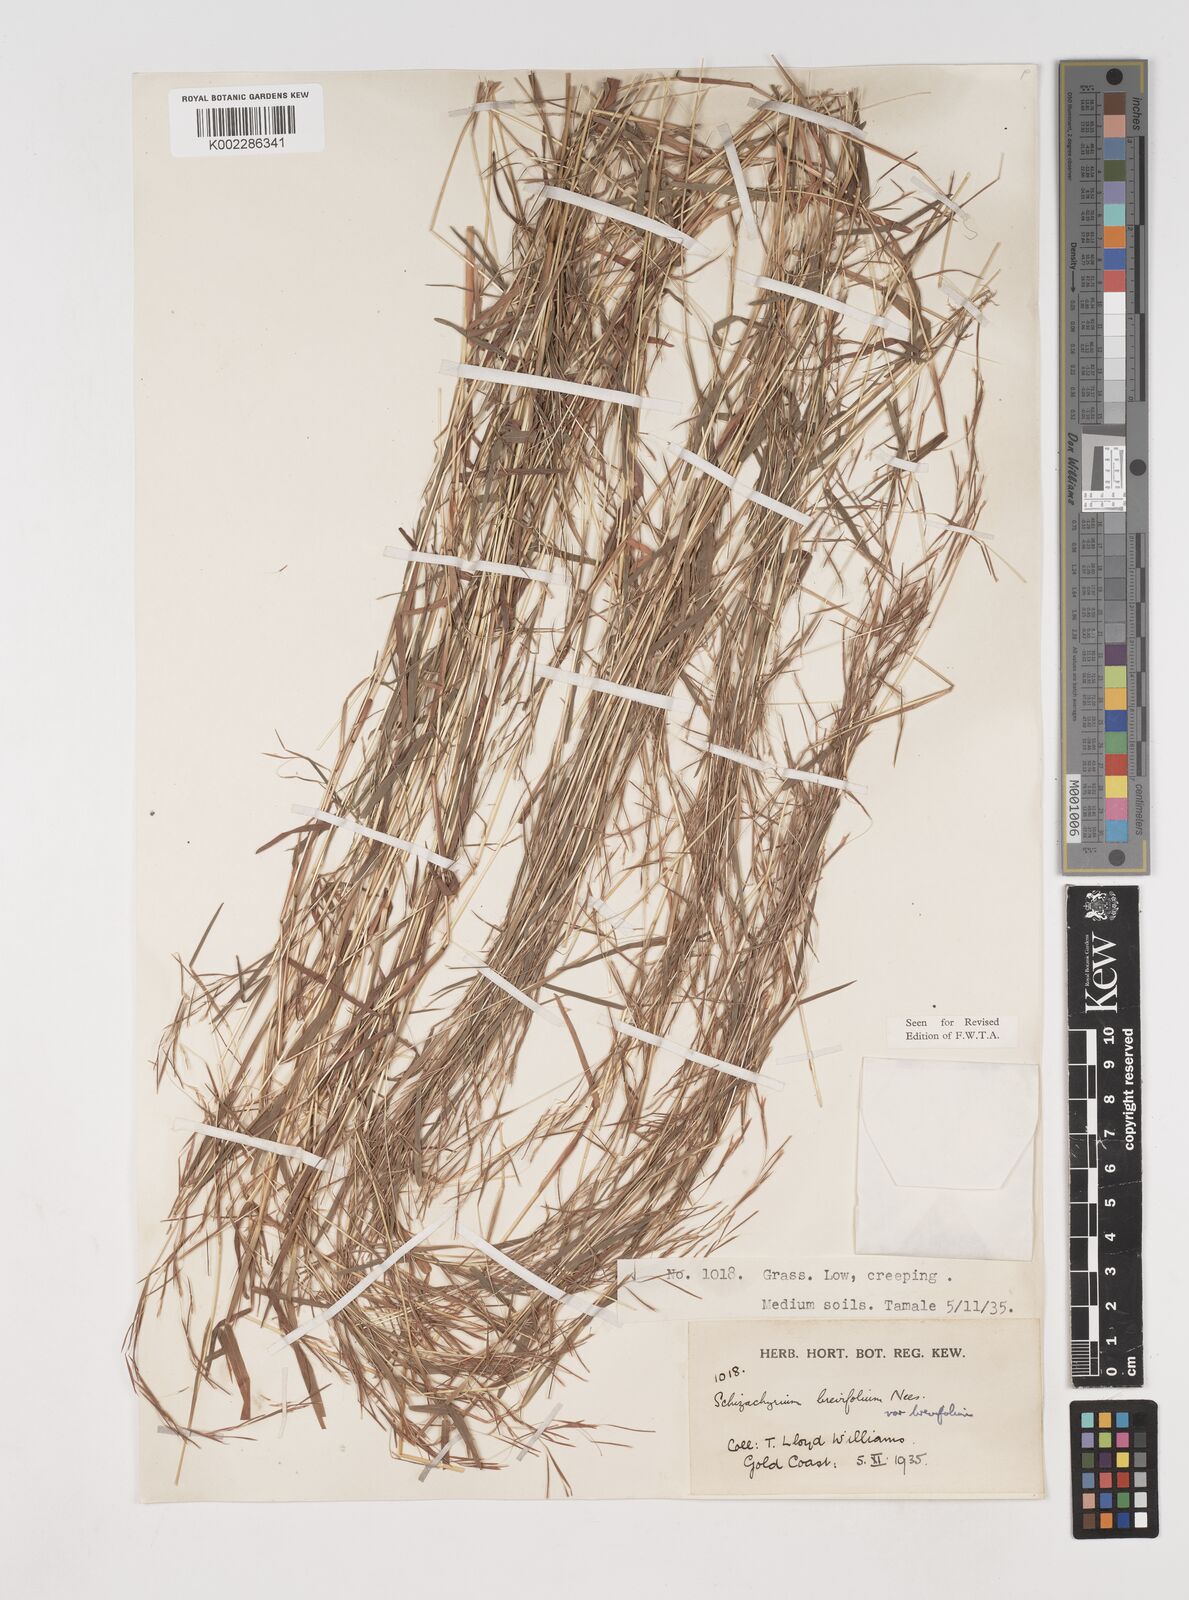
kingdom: Plantae
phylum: Tracheophyta
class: Liliopsida
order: Poales
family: Poaceae
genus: Schizachyrium
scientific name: Schizachyrium brevifolium
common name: Serillo dulce
